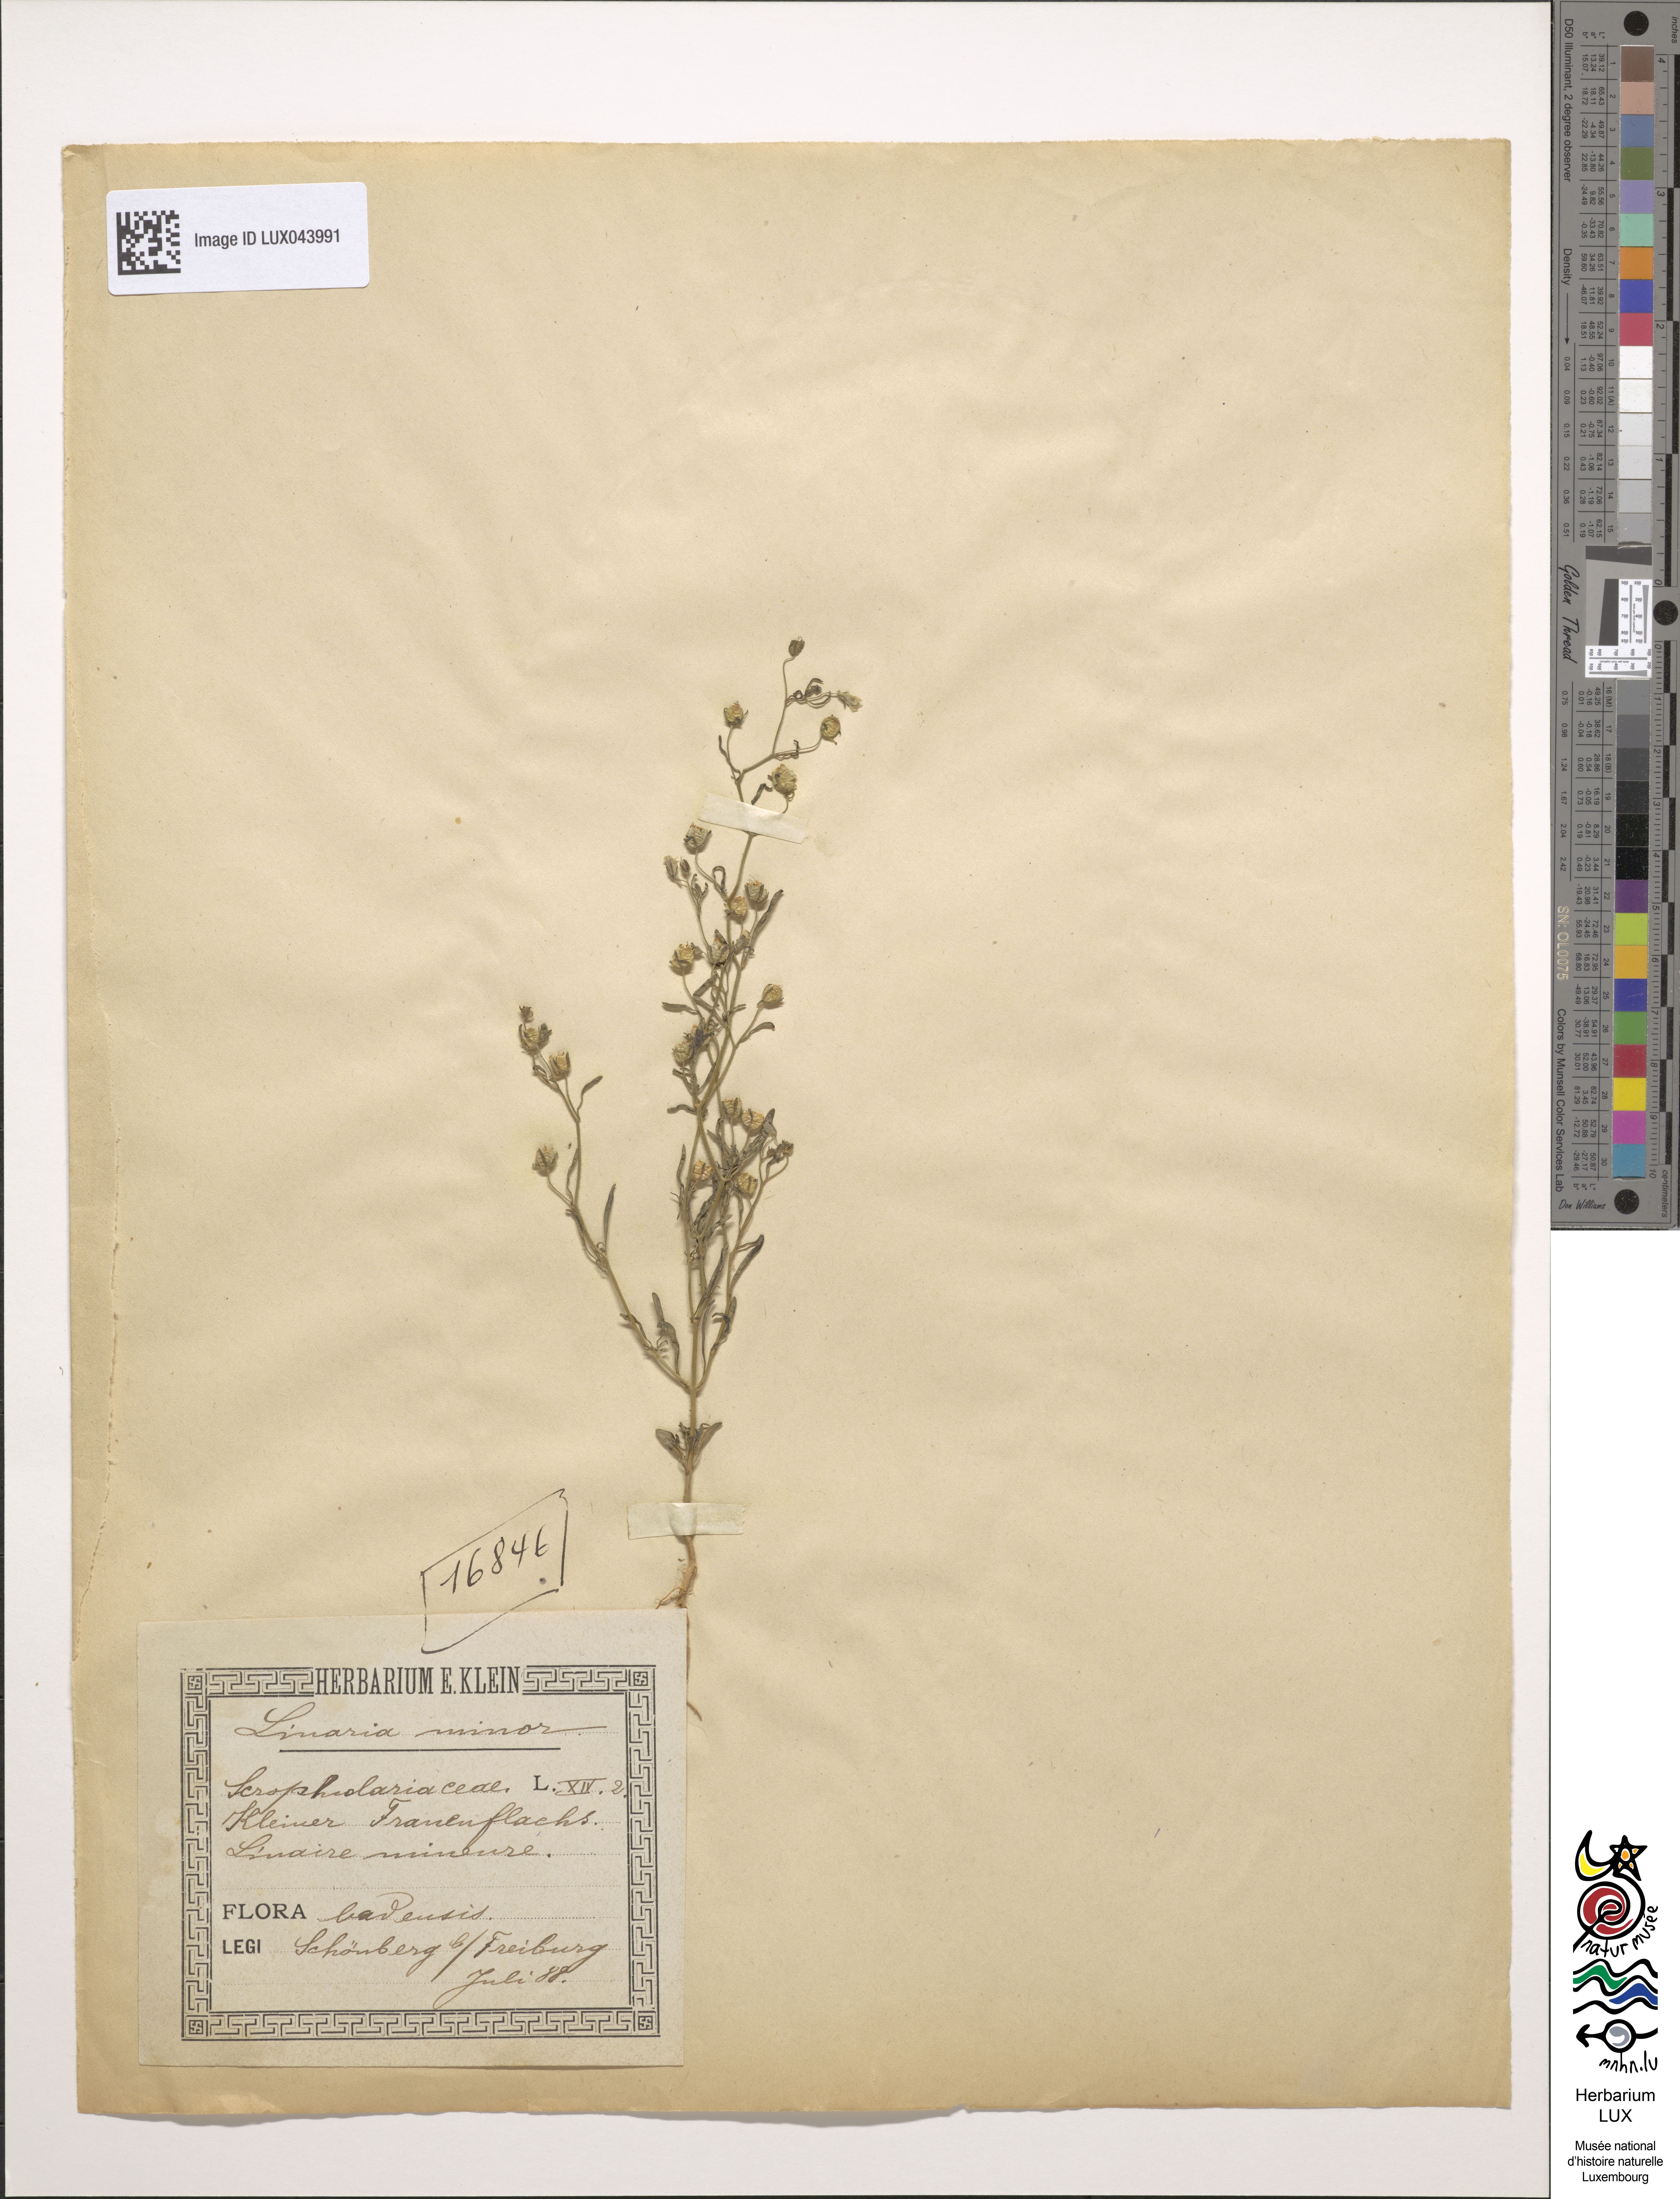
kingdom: Plantae
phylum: Tracheophyta
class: Magnoliopsida
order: Lamiales
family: Plantaginaceae
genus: Chaenorhinum
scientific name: Chaenorhinum minus
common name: Dwarf snapdragon
